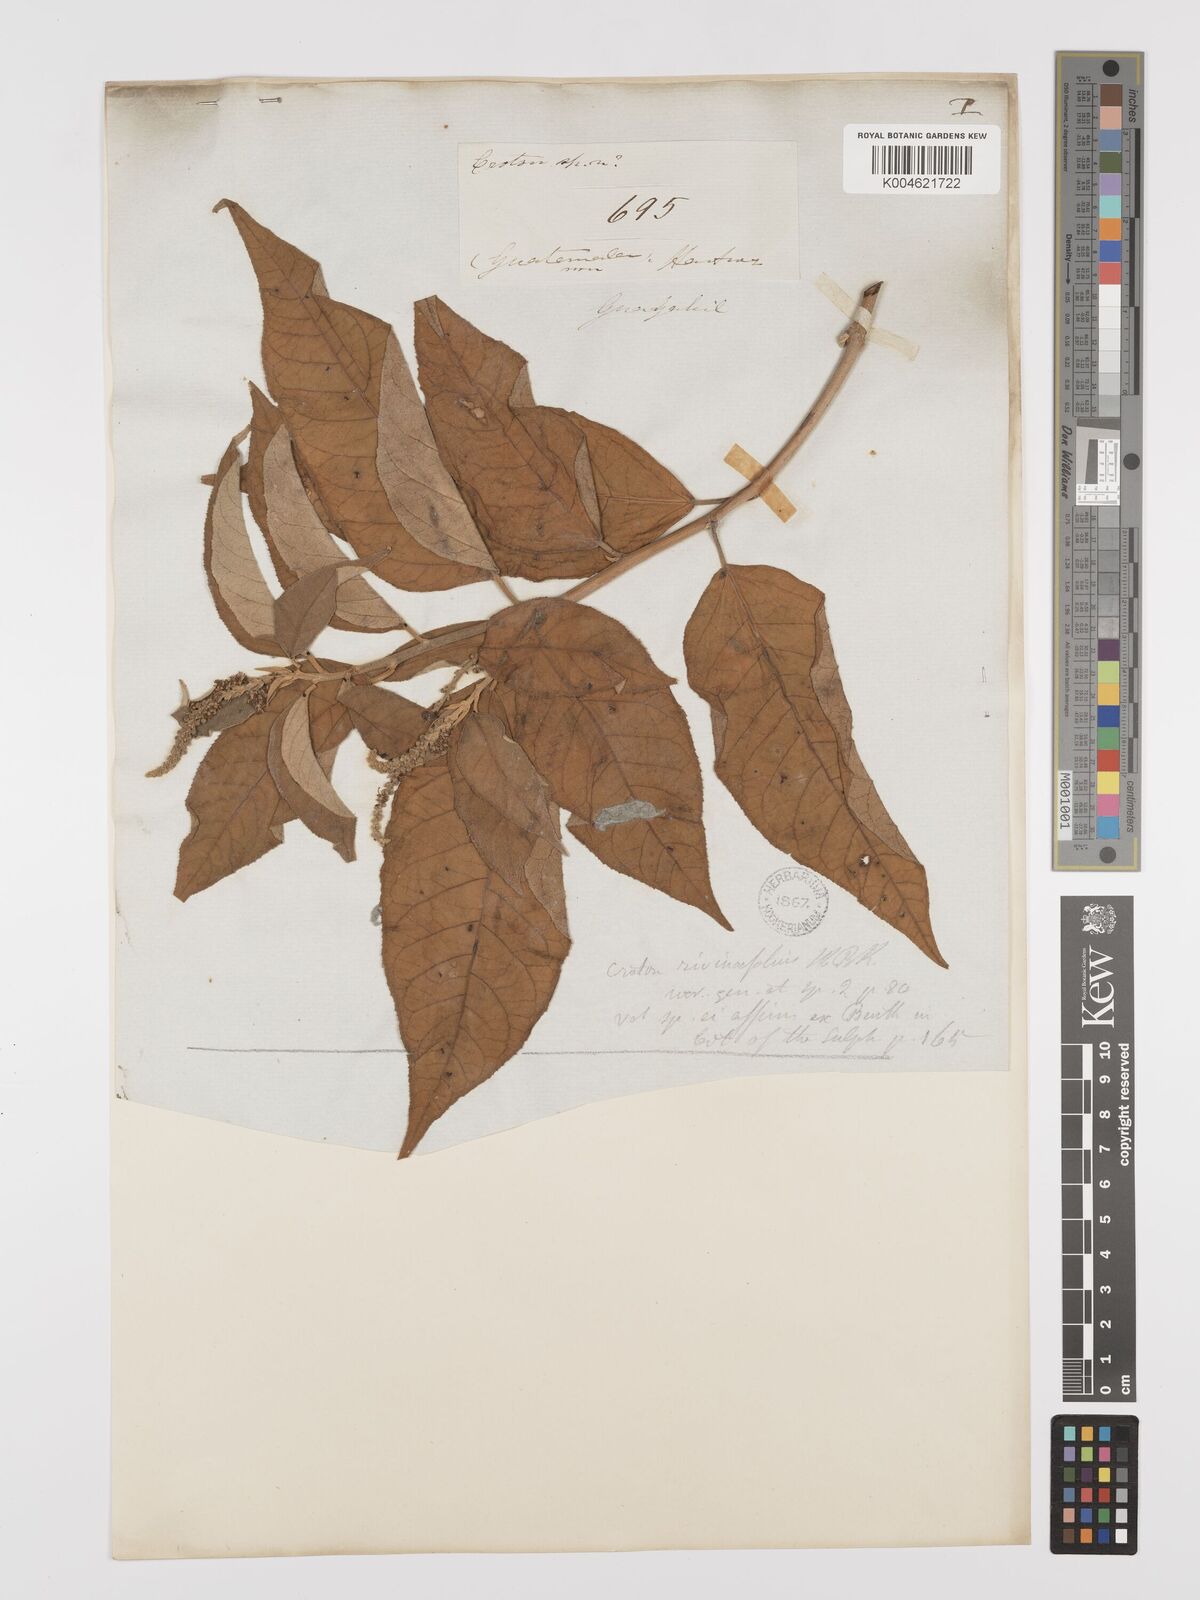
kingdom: Plantae
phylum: Tracheophyta
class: Magnoliopsida
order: Malpighiales
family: Euphorbiaceae
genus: Croton
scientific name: Croton rivinifolius
